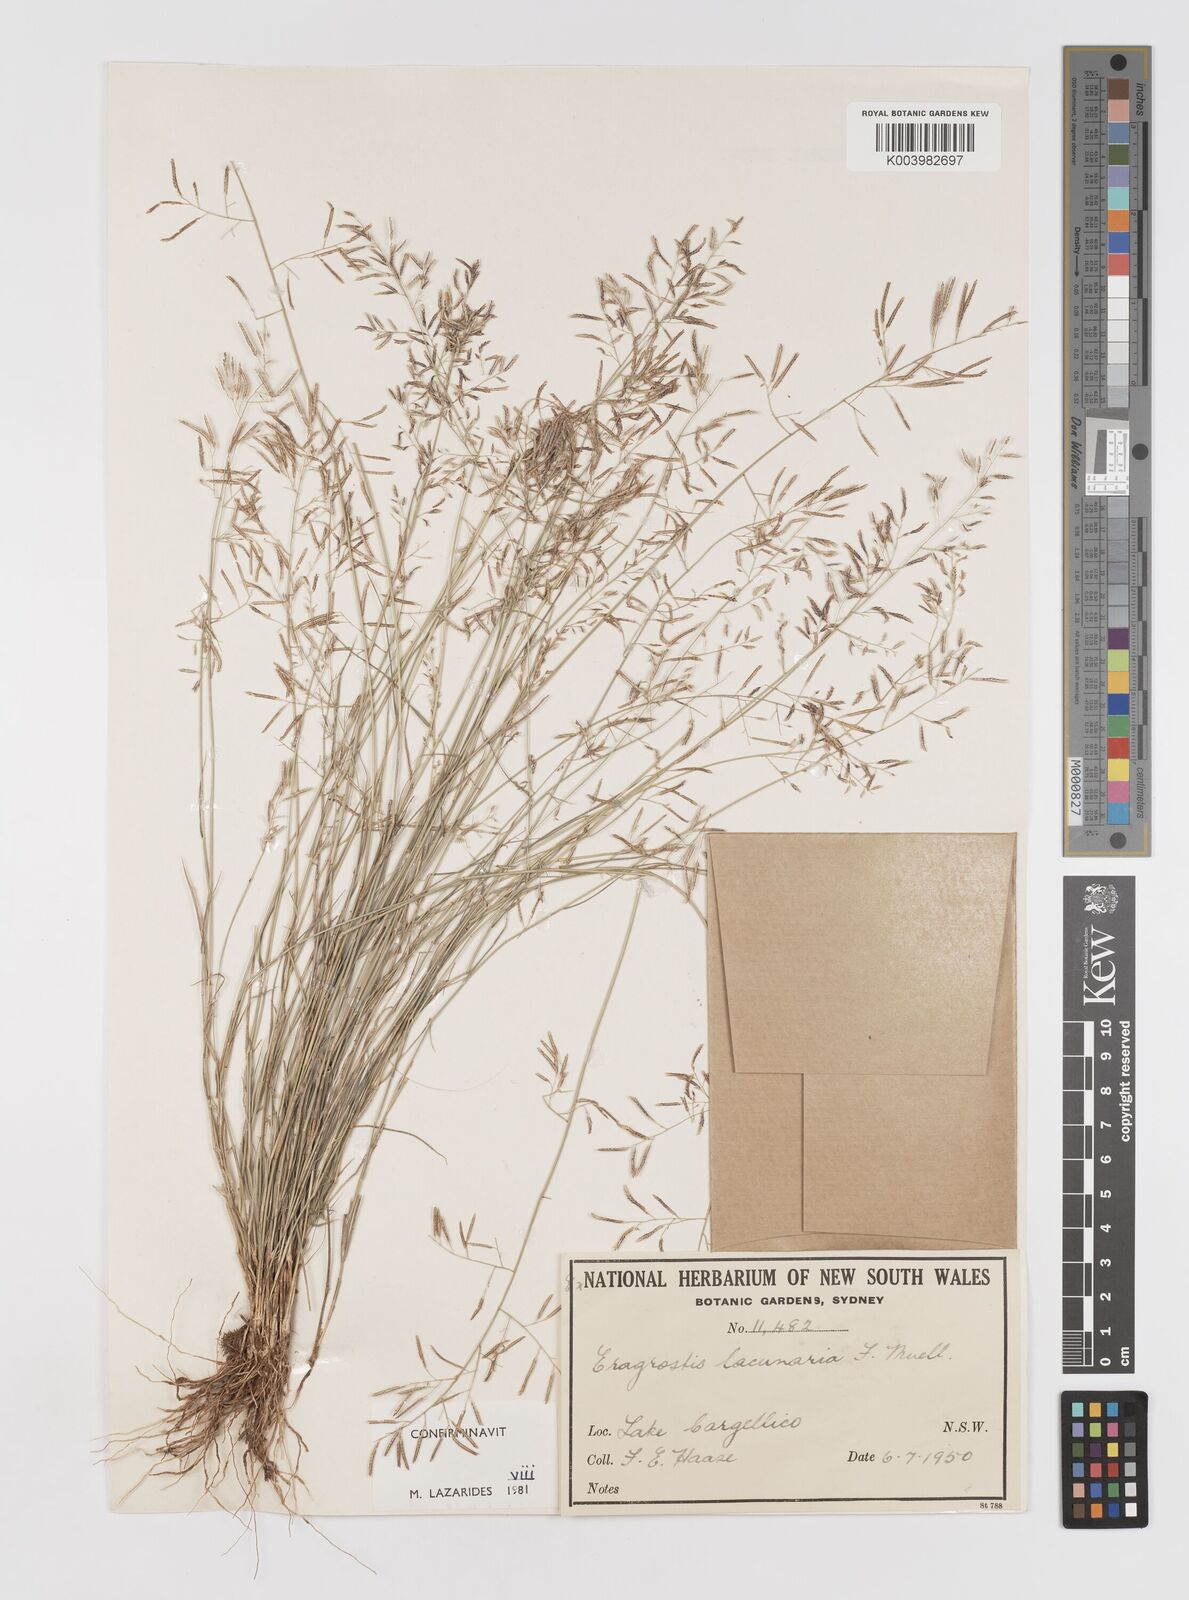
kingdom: Plantae
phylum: Tracheophyta
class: Liliopsida
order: Poales
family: Poaceae
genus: Eragrostis
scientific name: Eragrostis lacunaria
